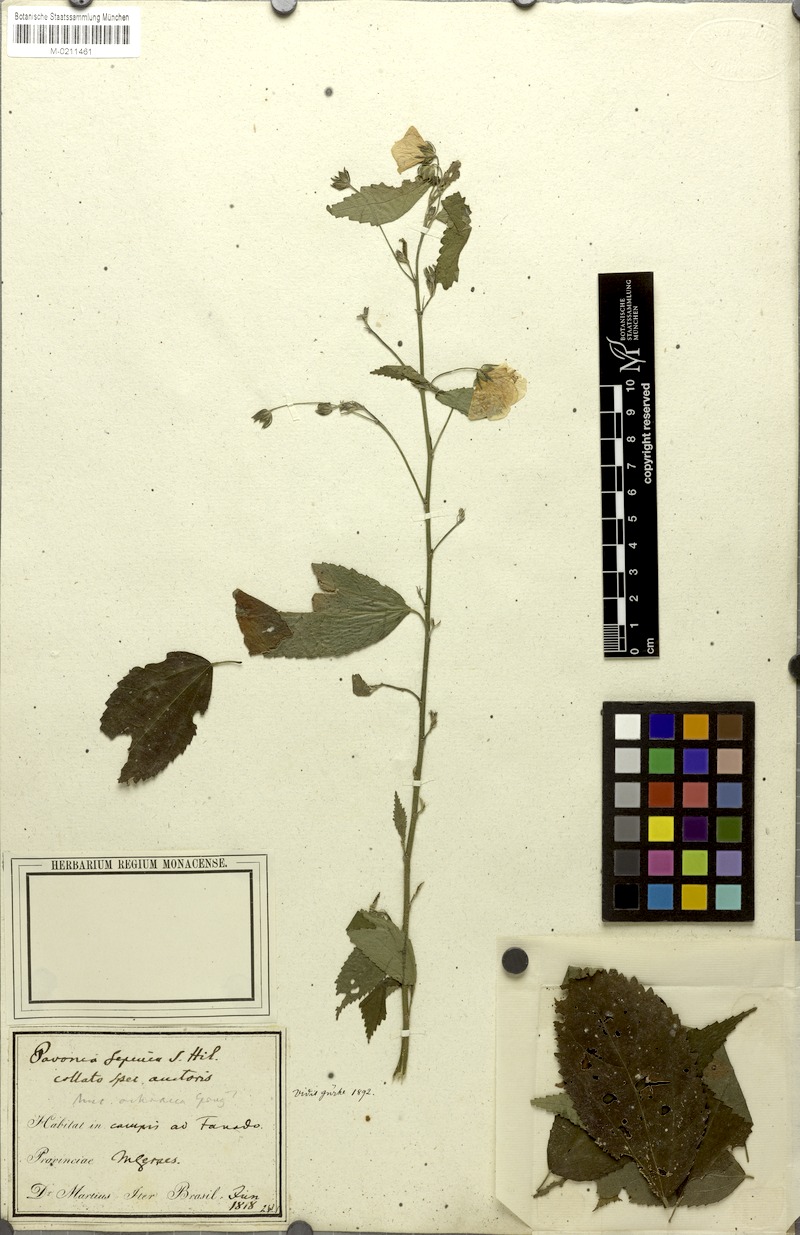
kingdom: Plantae
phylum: Tracheophyta
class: Magnoliopsida
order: Malvales
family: Malvaceae
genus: Pavonia
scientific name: Pavonia sepium
